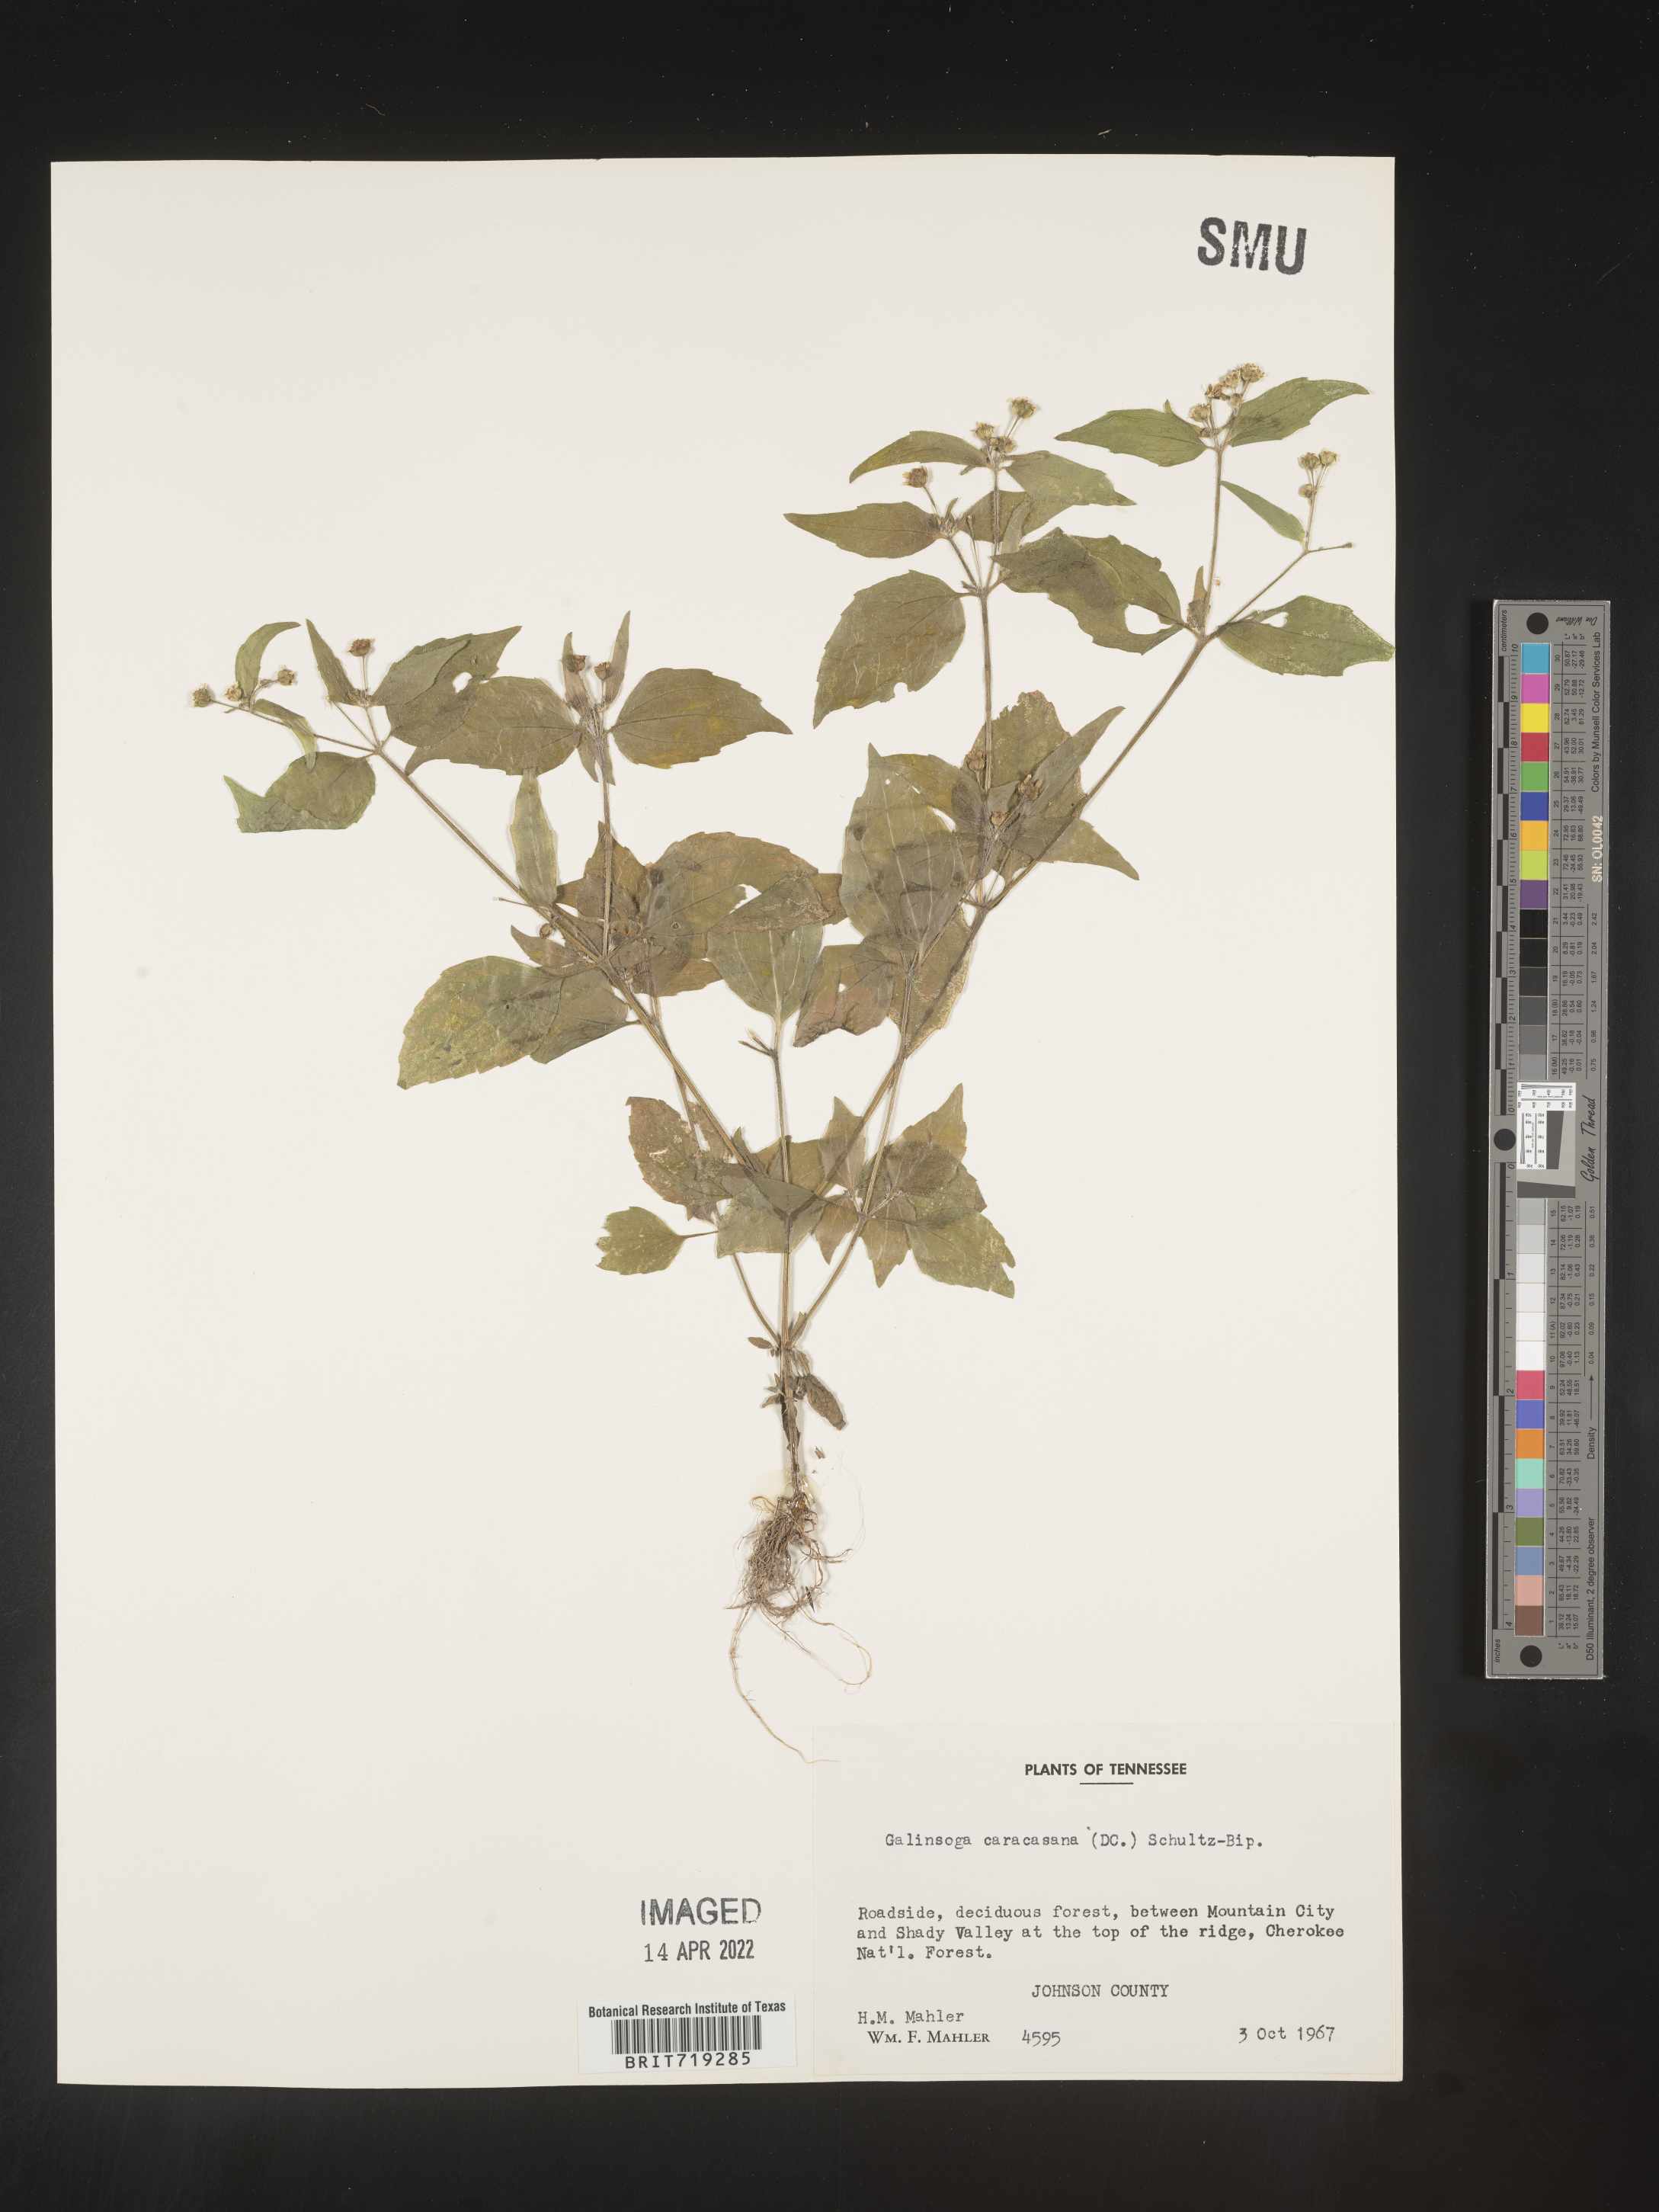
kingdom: Plantae
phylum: Tracheophyta
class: Magnoliopsida
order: Asterales
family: Asteraceae
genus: Galinsoga
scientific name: Galinsoga
